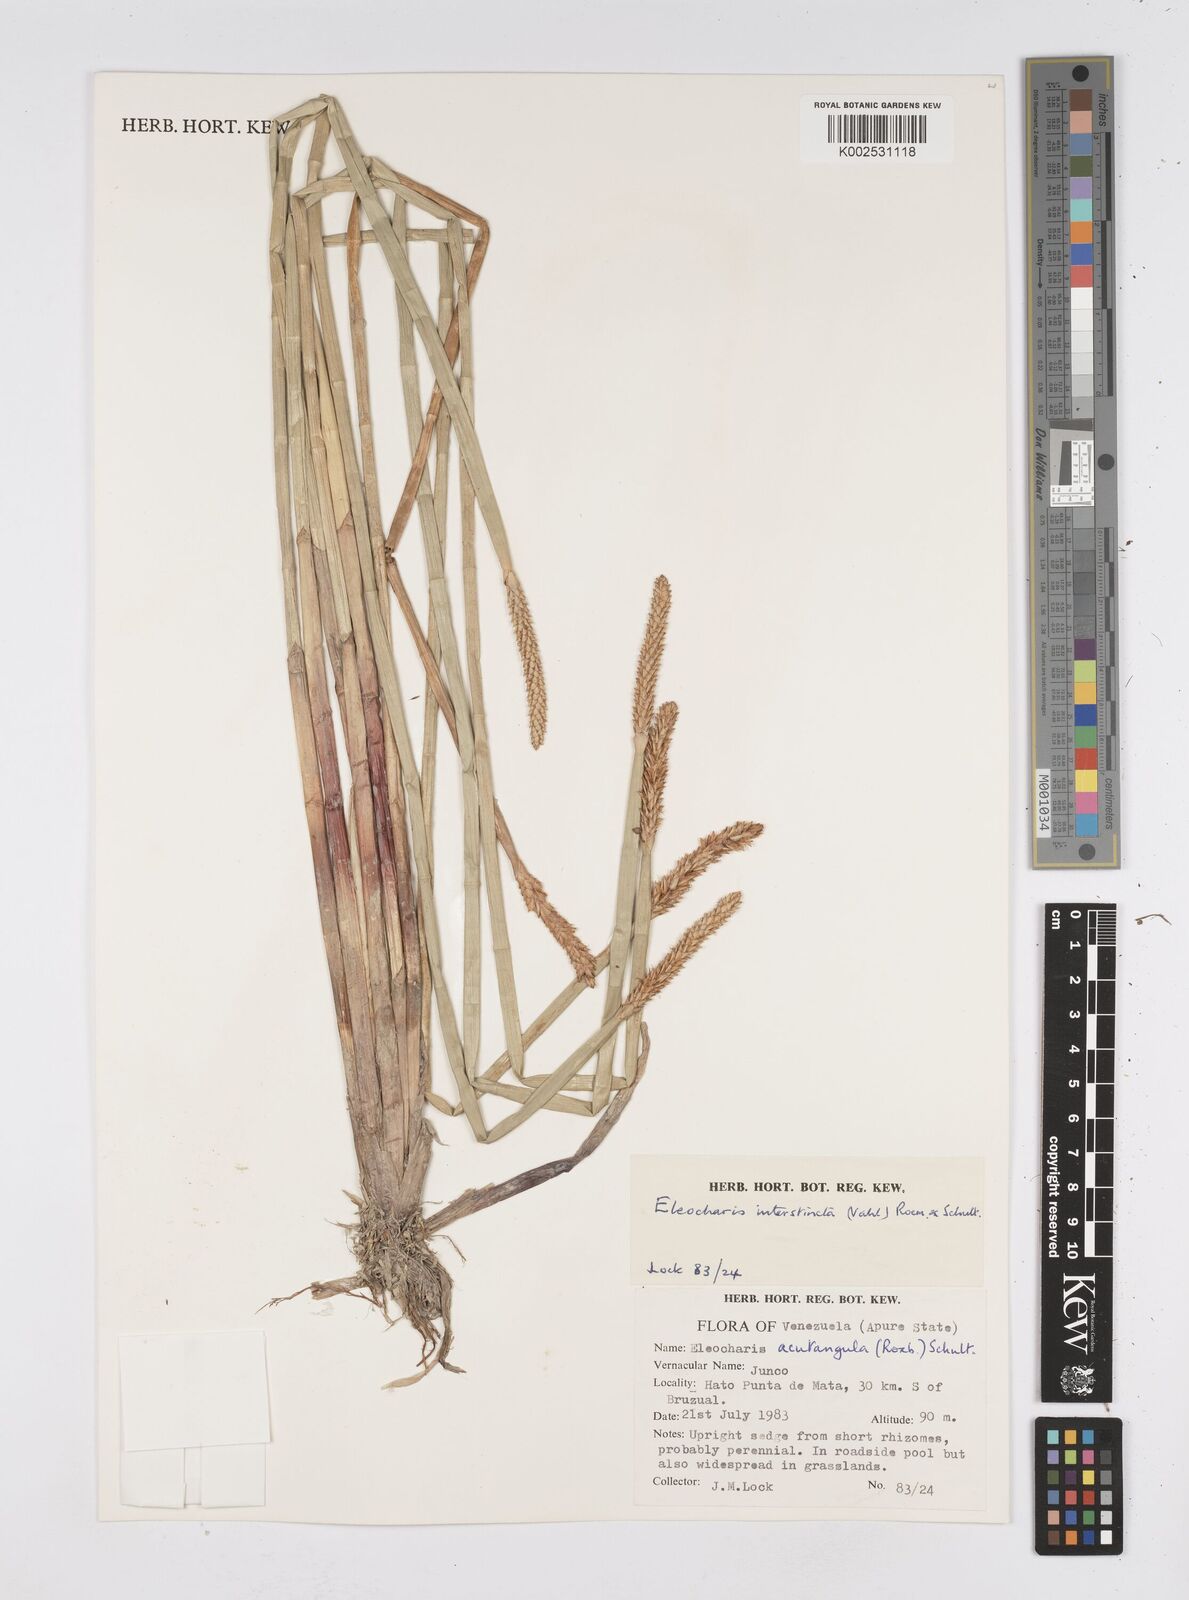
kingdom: Plantae
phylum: Tracheophyta
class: Liliopsida
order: Poales
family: Cyperaceae
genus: Eleocharis
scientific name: Eleocharis interstincta
